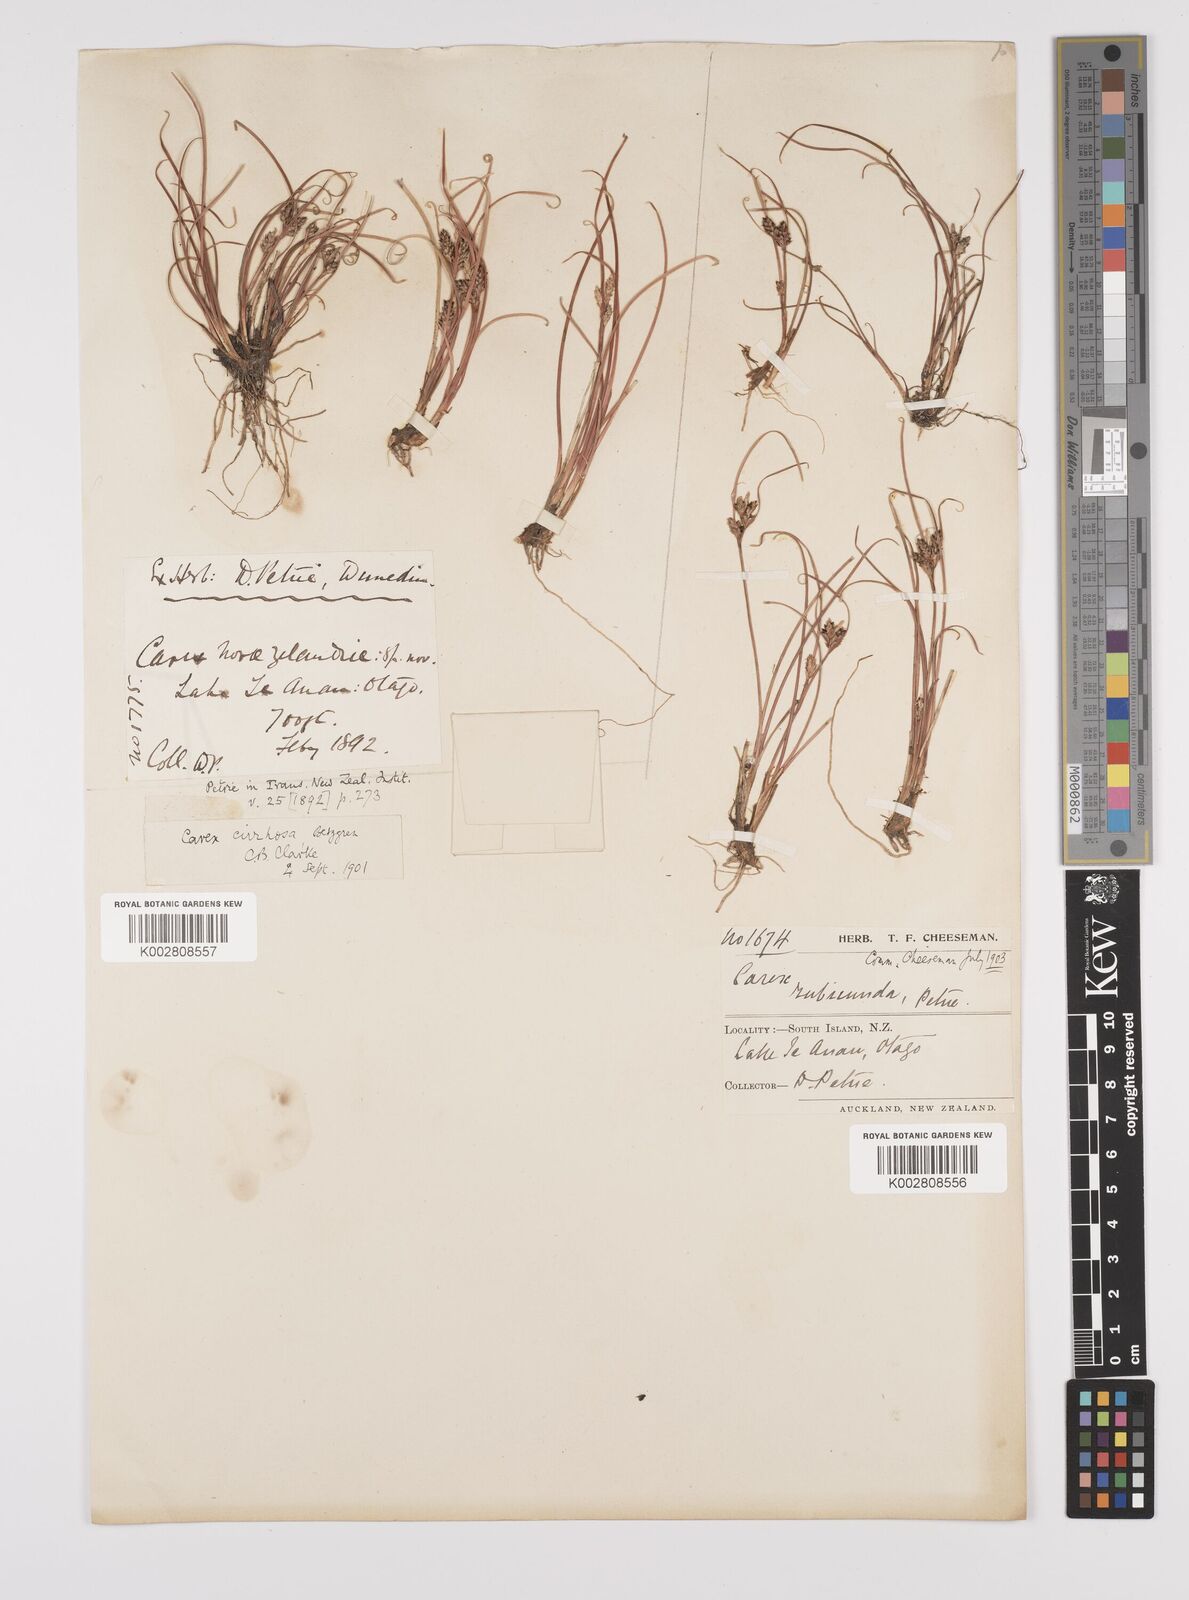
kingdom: Plantae
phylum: Tracheophyta
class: Liliopsida
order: Poales
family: Cyperaceae
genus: Carex
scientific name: Carex cirrhosa
